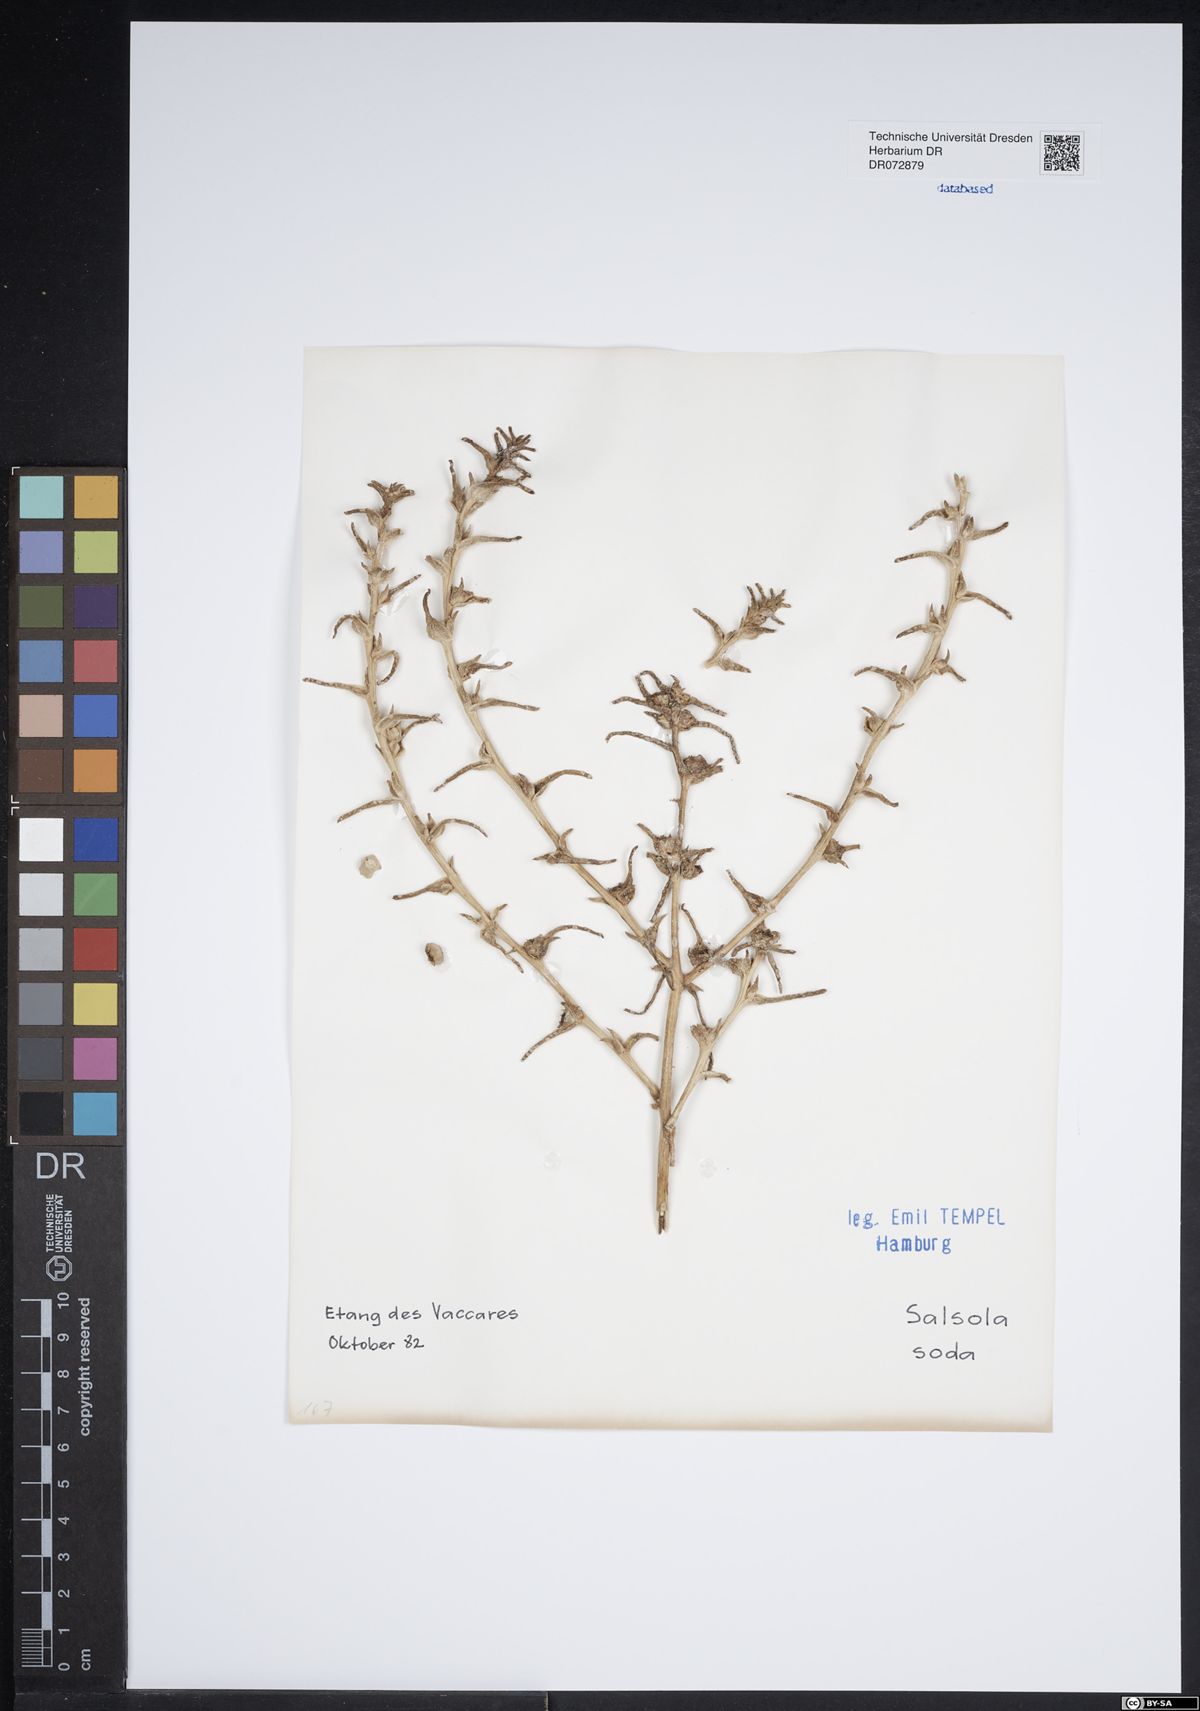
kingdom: Plantae
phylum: Tracheophyta
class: Magnoliopsida
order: Caryophyllales
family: Amaranthaceae
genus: Soda
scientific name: Soda inermis
